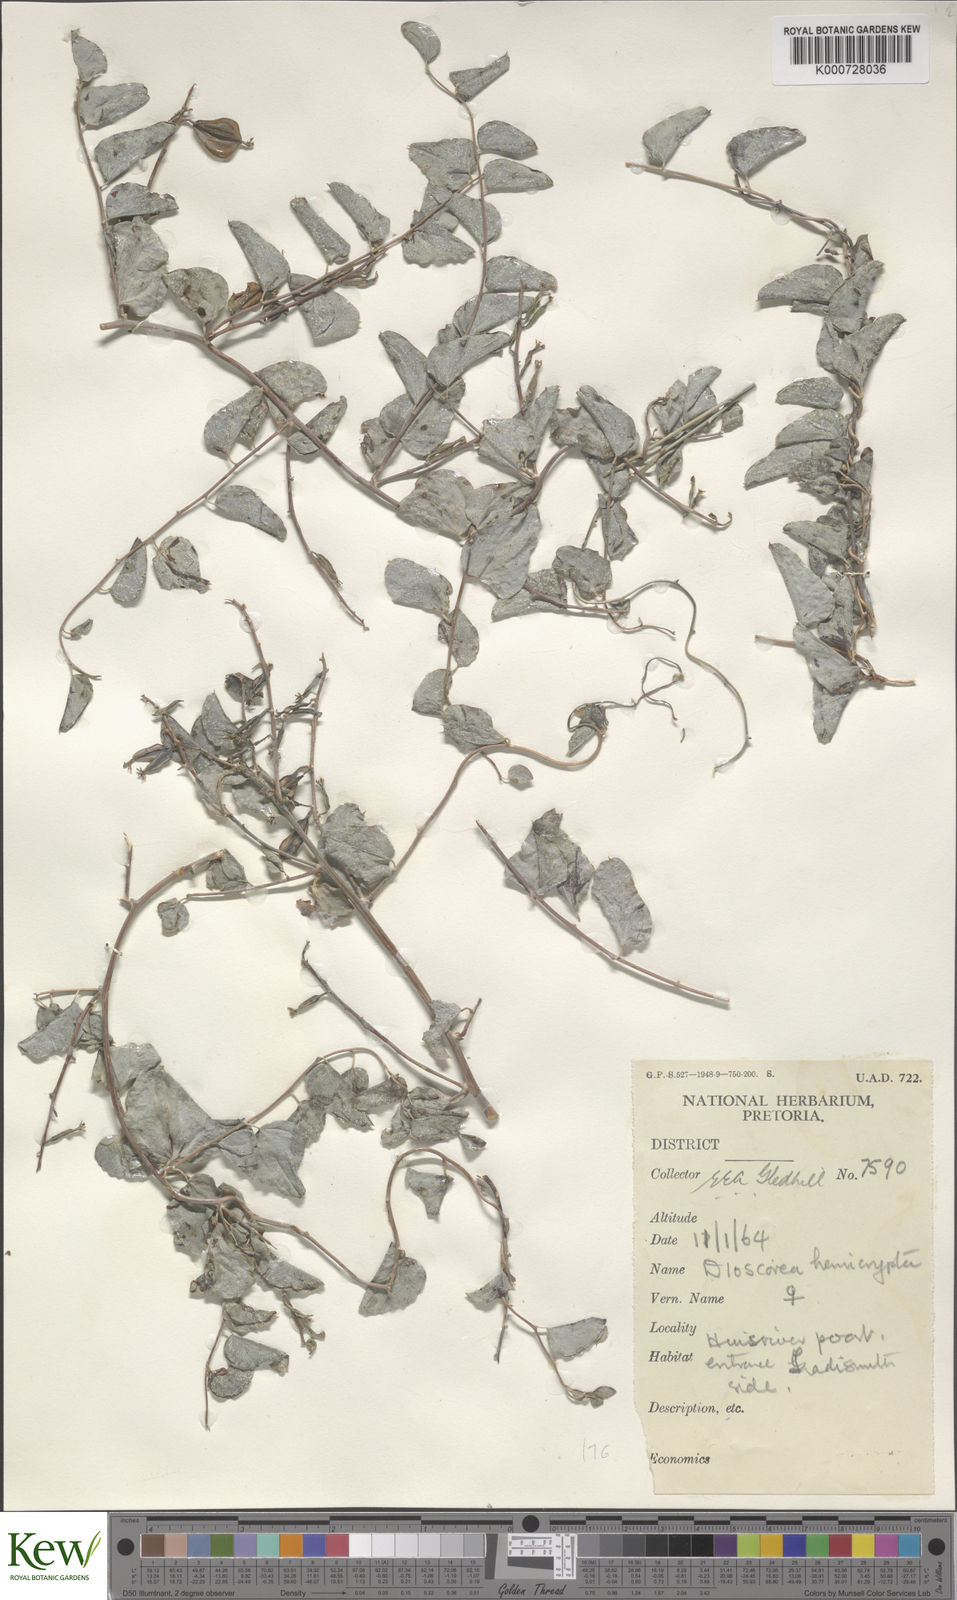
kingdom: Plantae
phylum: Tracheophyta
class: Liliopsida
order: Dioscoreales
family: Dioscoreaceae
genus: Dioscorea
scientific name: Dioscorea hemicrypta
